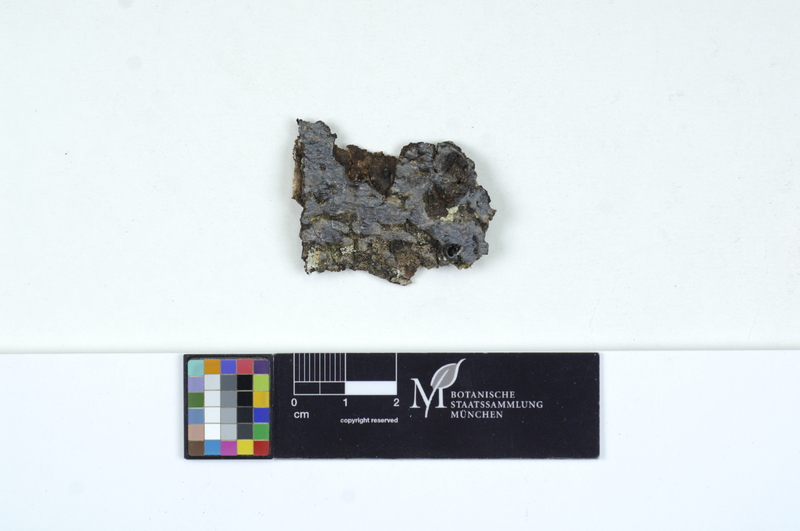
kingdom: Plantae
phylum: Tracheophyta
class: Pinopsida
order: Pinales
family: Pinaceae
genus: Abies
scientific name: Abies
